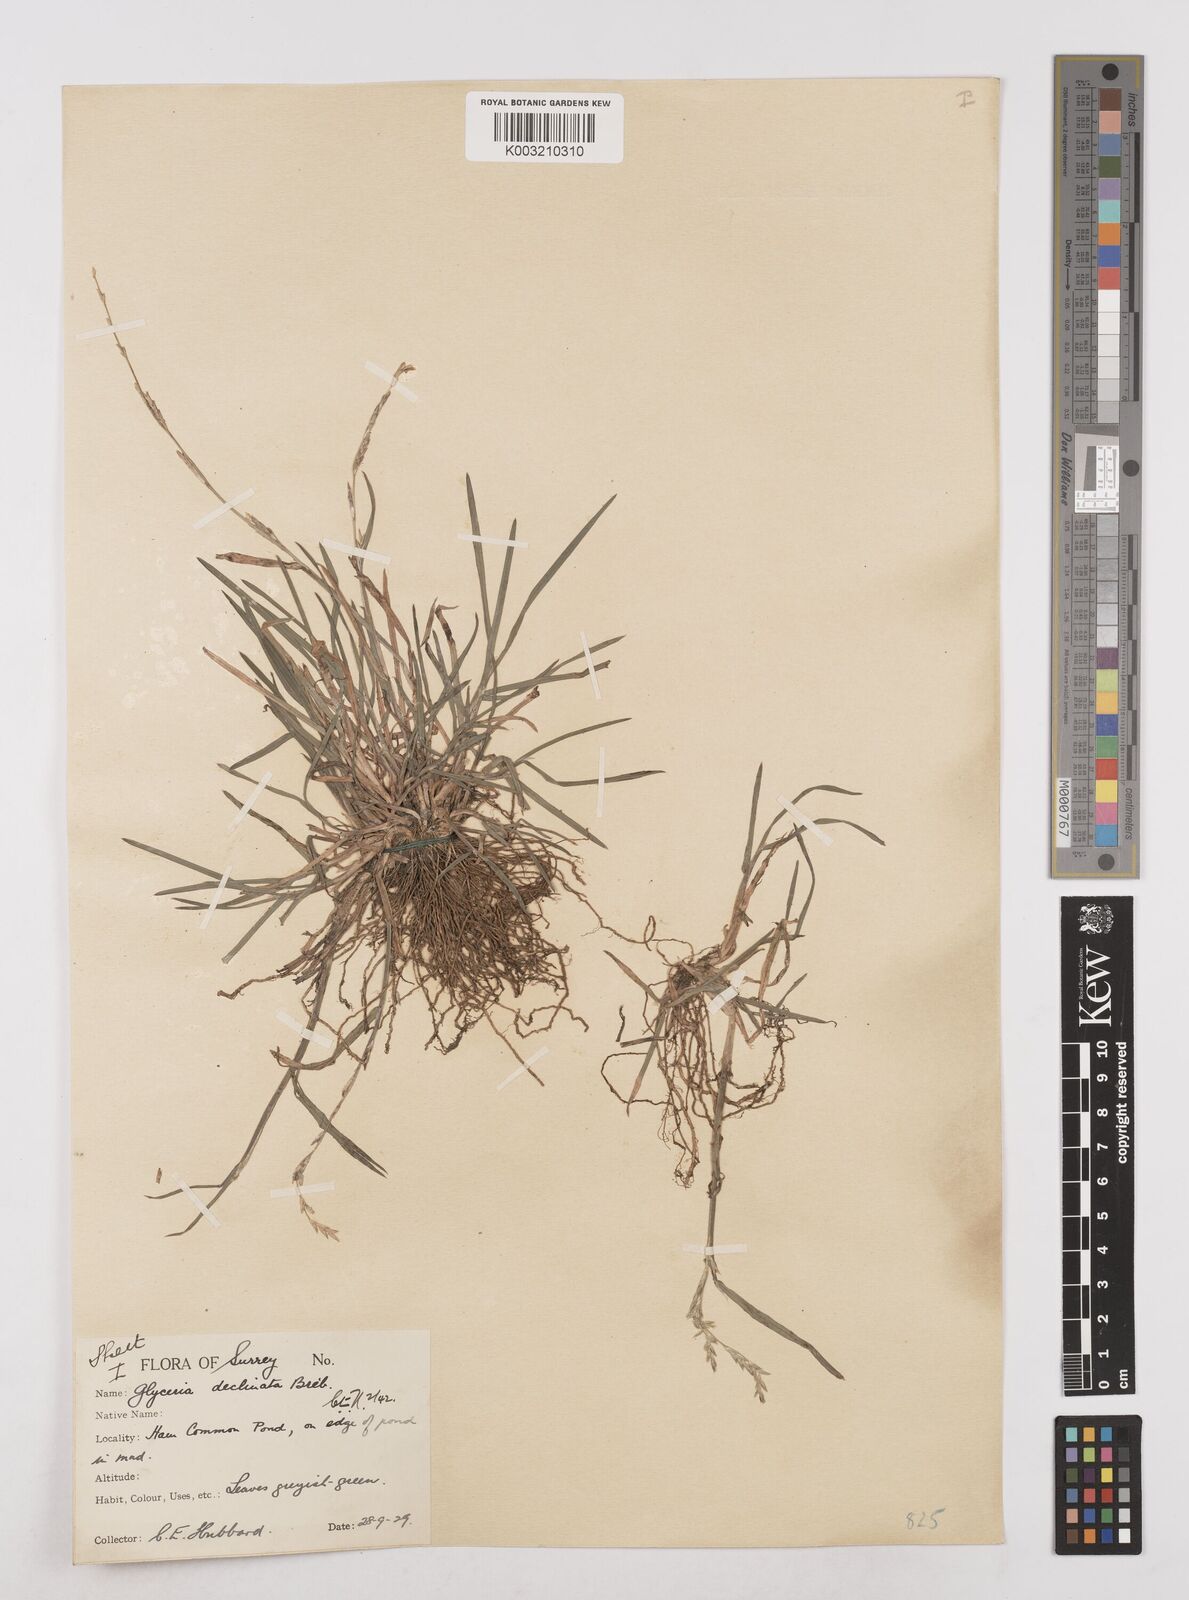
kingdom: Plantae
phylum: Tracheophyta
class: Liliopsida
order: Poales
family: Poaceae
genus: Glyceria
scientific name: Glyceria declinata
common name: Small sweet-grass
